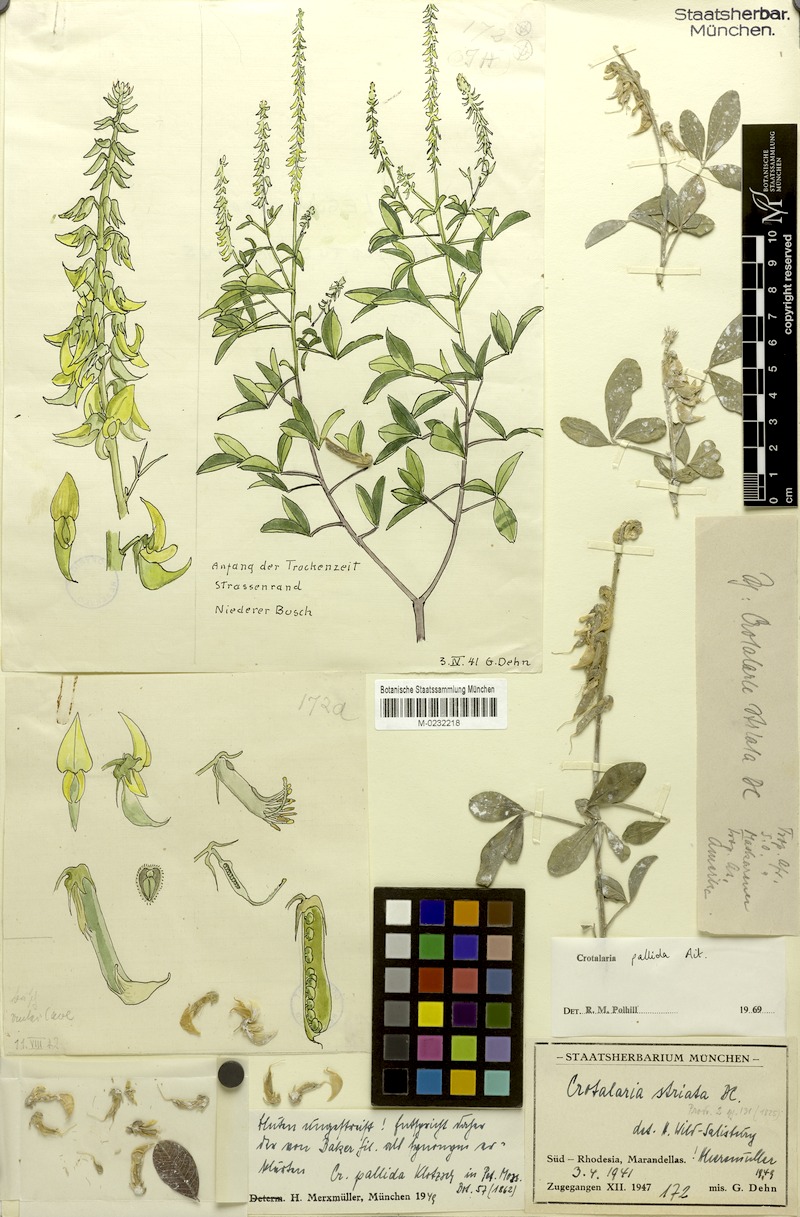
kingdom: Plantae
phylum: Tracheophyta
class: Magnoliopsida
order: Fabales
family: Fabaceae
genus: Crotalaria
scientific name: Crotalaria pallida
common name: Smooth rattlebox
